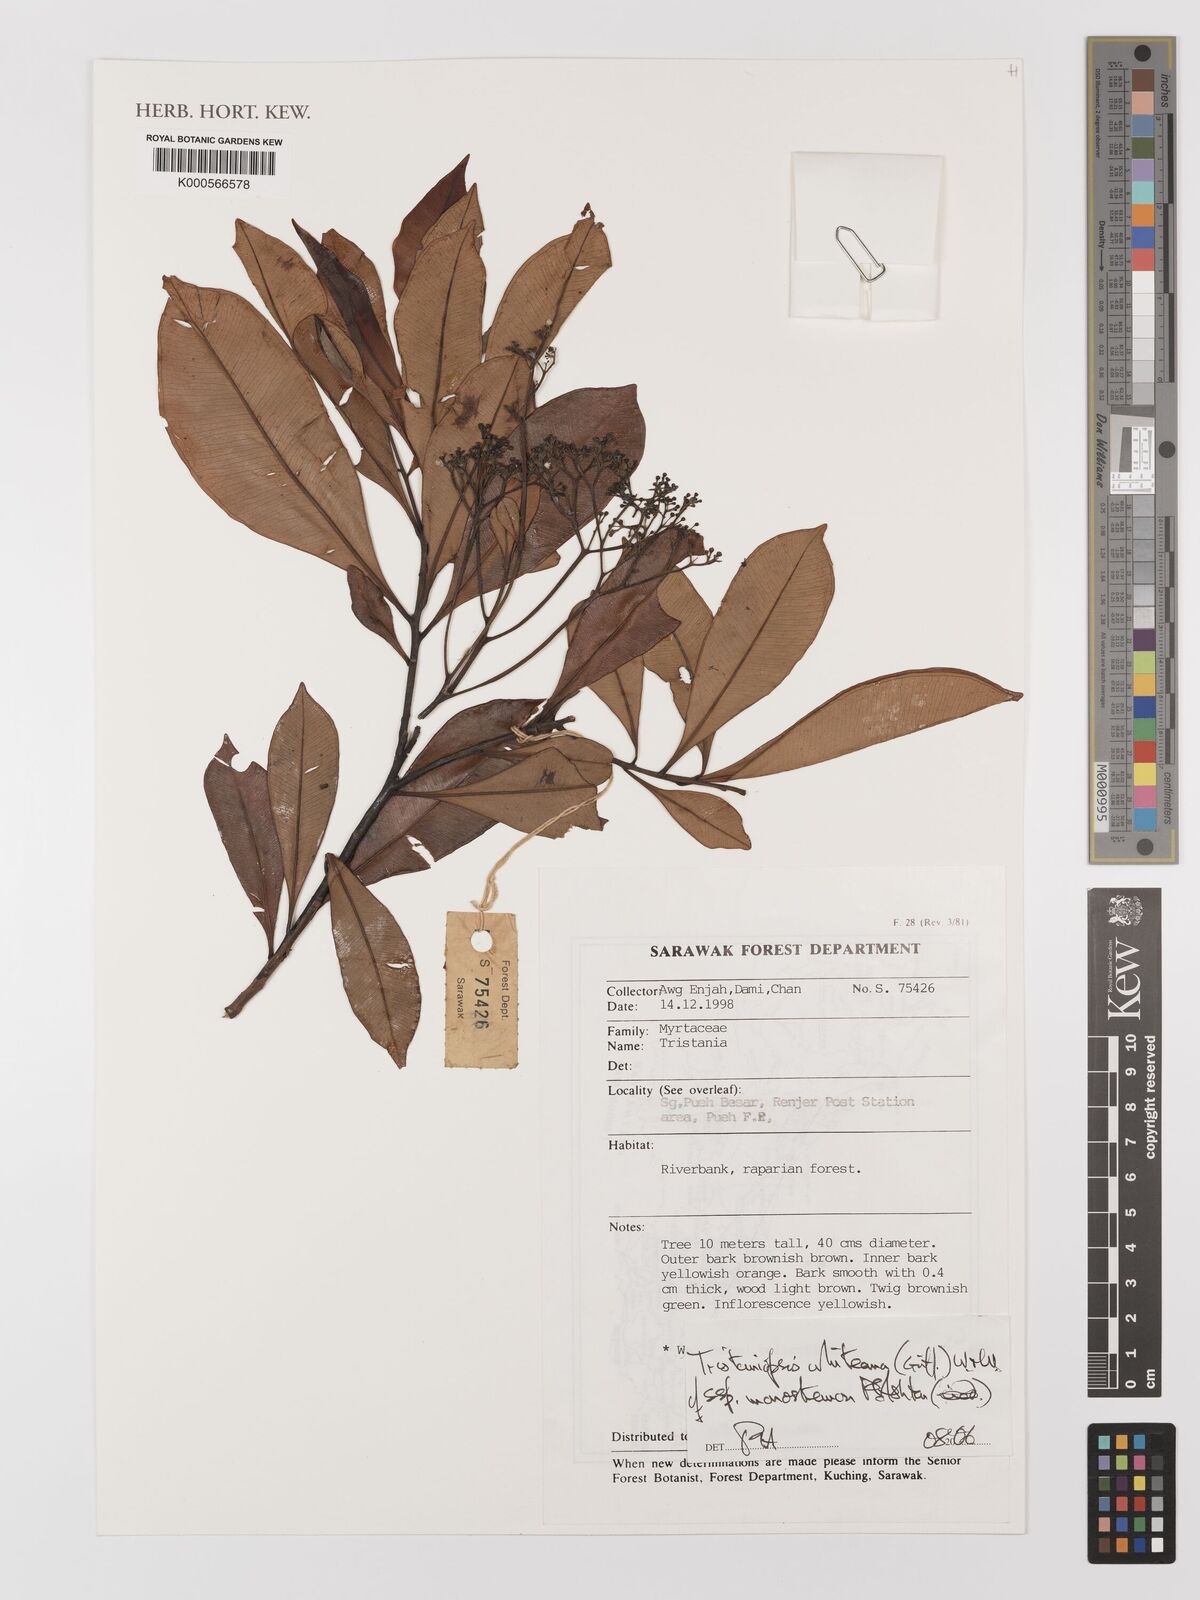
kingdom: Plantae
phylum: Tracheophyta
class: Magnoliopsida
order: Myrtales
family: Myrtaceae
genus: Tristaniopsis
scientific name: Tristaniopsis whiteana
